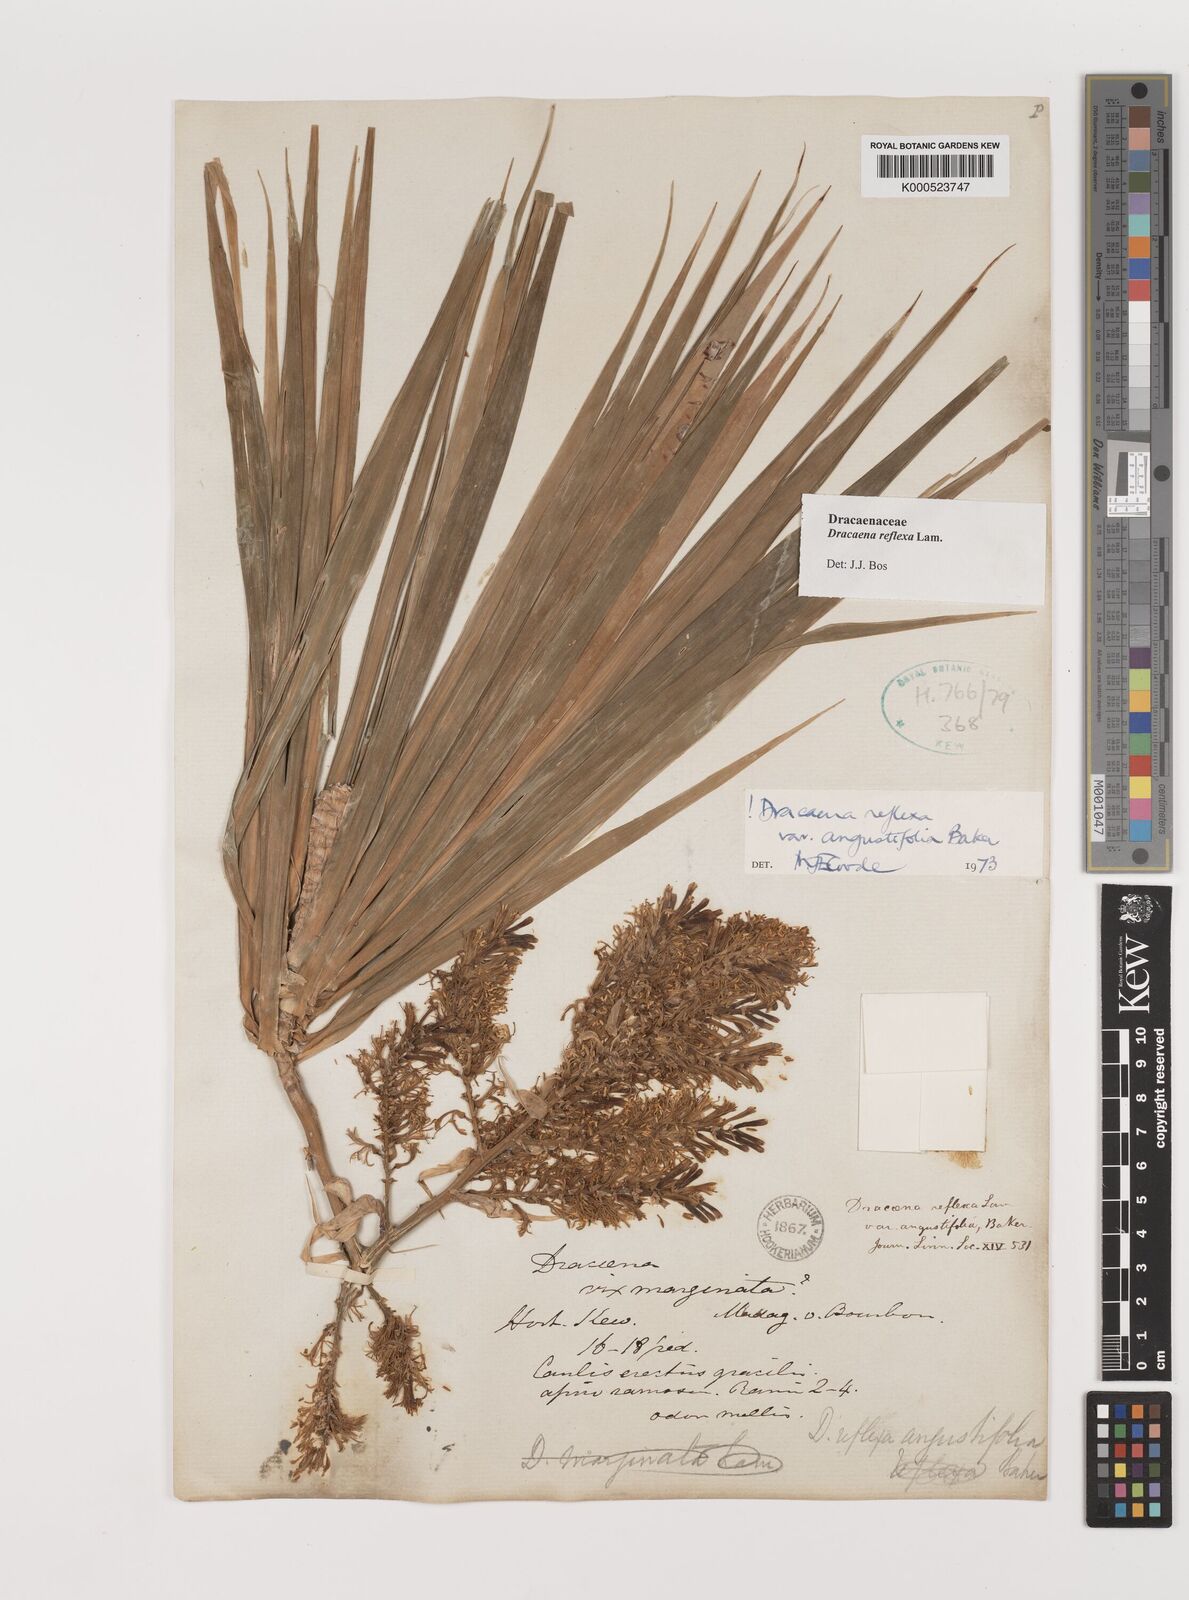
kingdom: Plantae
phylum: Tracheophyta
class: Liliopsida
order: Asparagales
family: Asparagaceae
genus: Dracaena
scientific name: Dracaena reflexa
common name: Song-of-india
